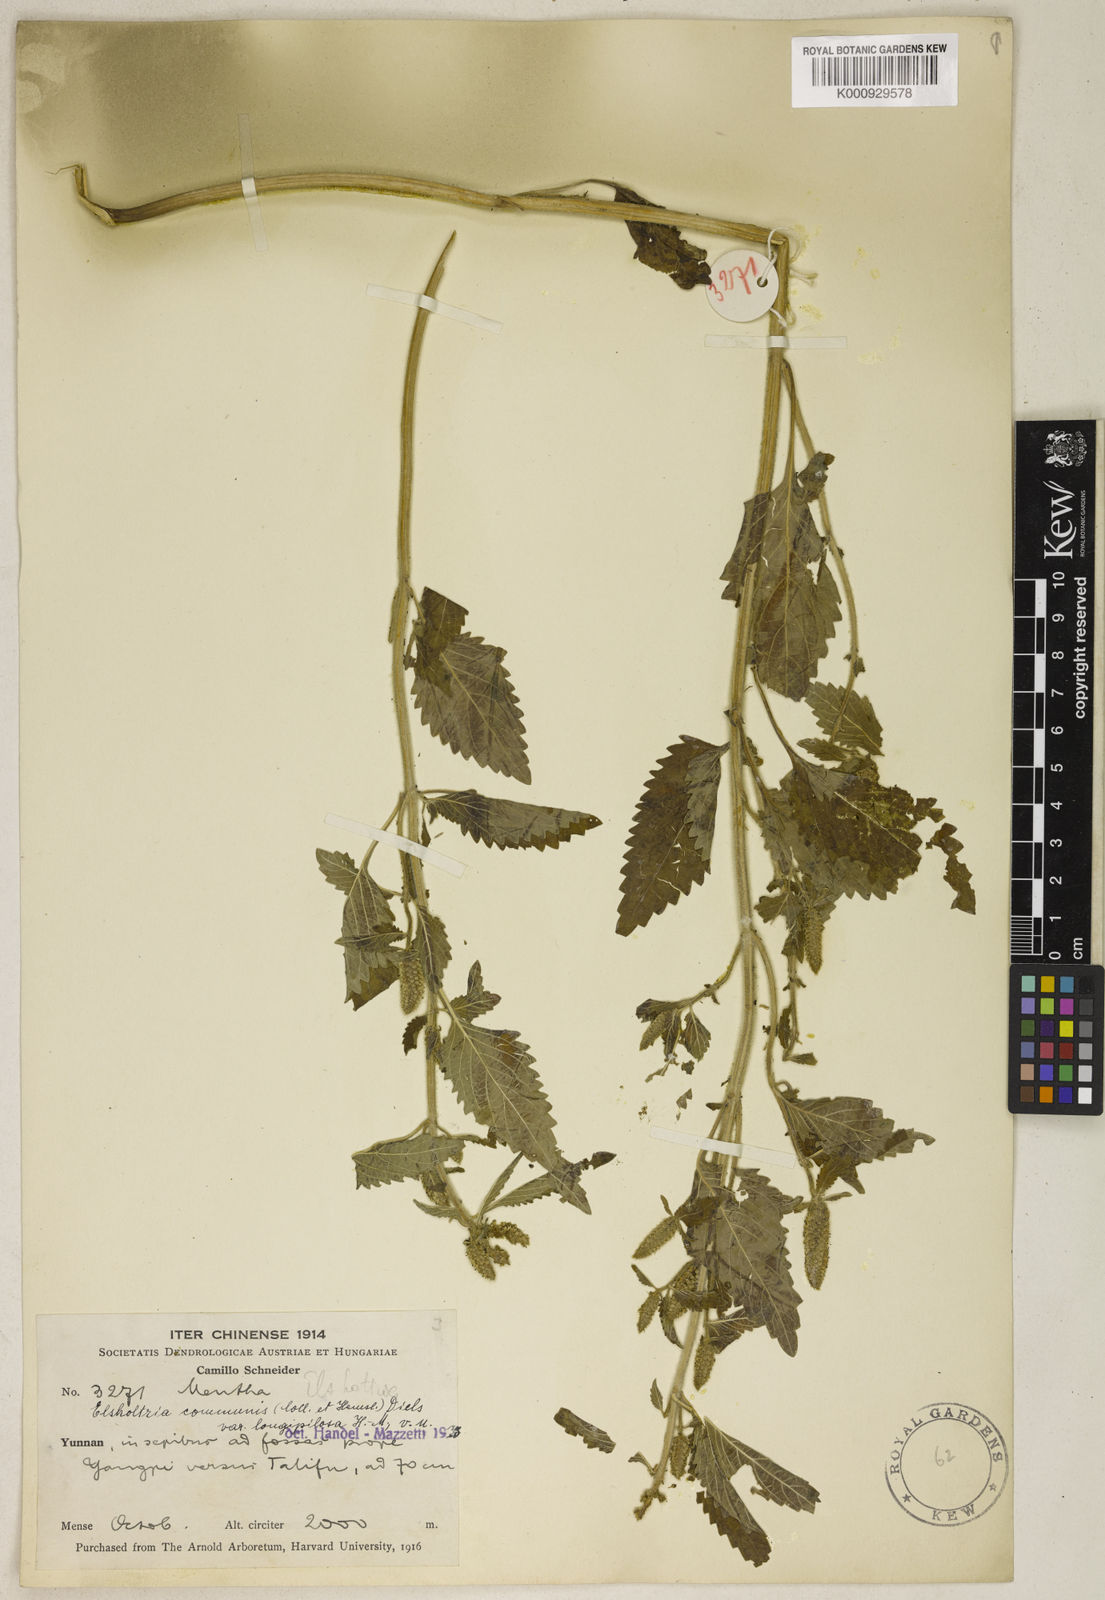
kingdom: Plantae
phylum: Tracheophyta
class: Magnoliopsida
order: Lamiales
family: Lamiaceae
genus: Elsholtzia
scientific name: Elsholtzia communis
